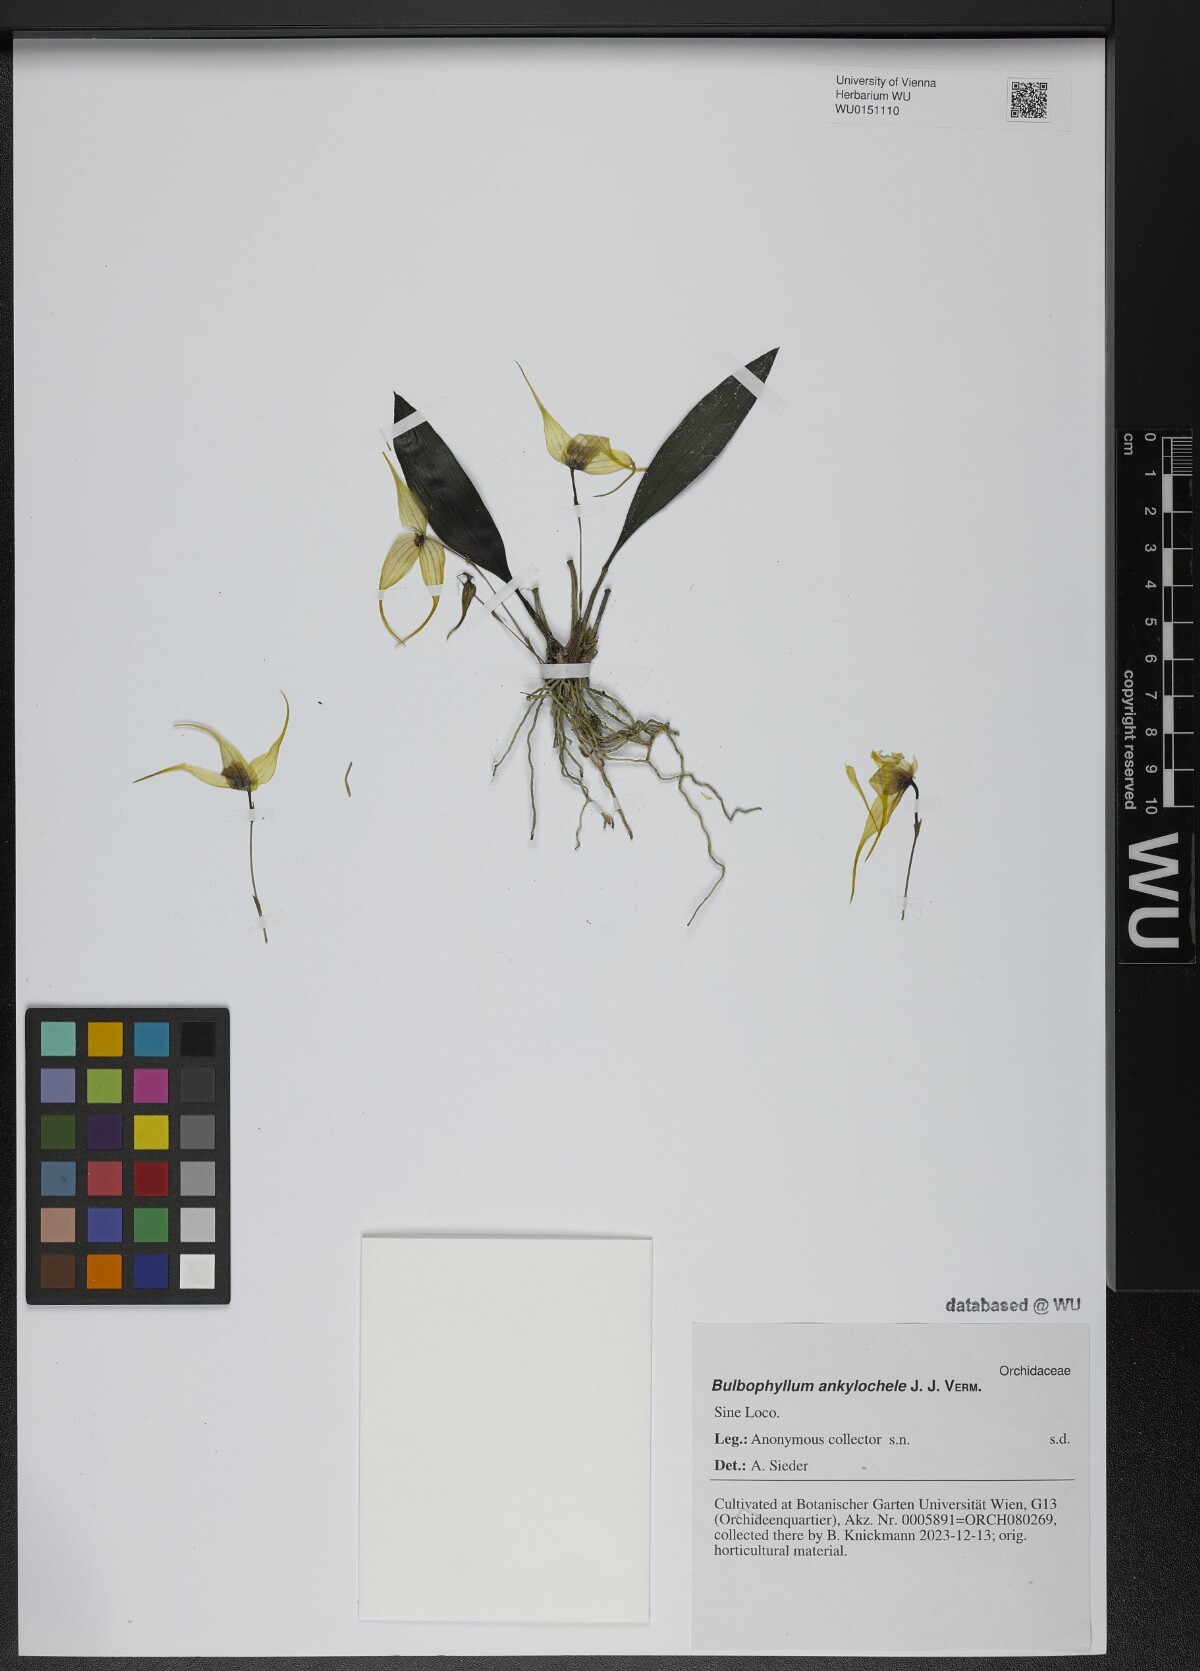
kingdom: Plantae
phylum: Tracheophyta
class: Liliopsida
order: Asparagales
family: Orchidaceae
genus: Bulbophyllum
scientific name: Bulbophyllum ankylochele
